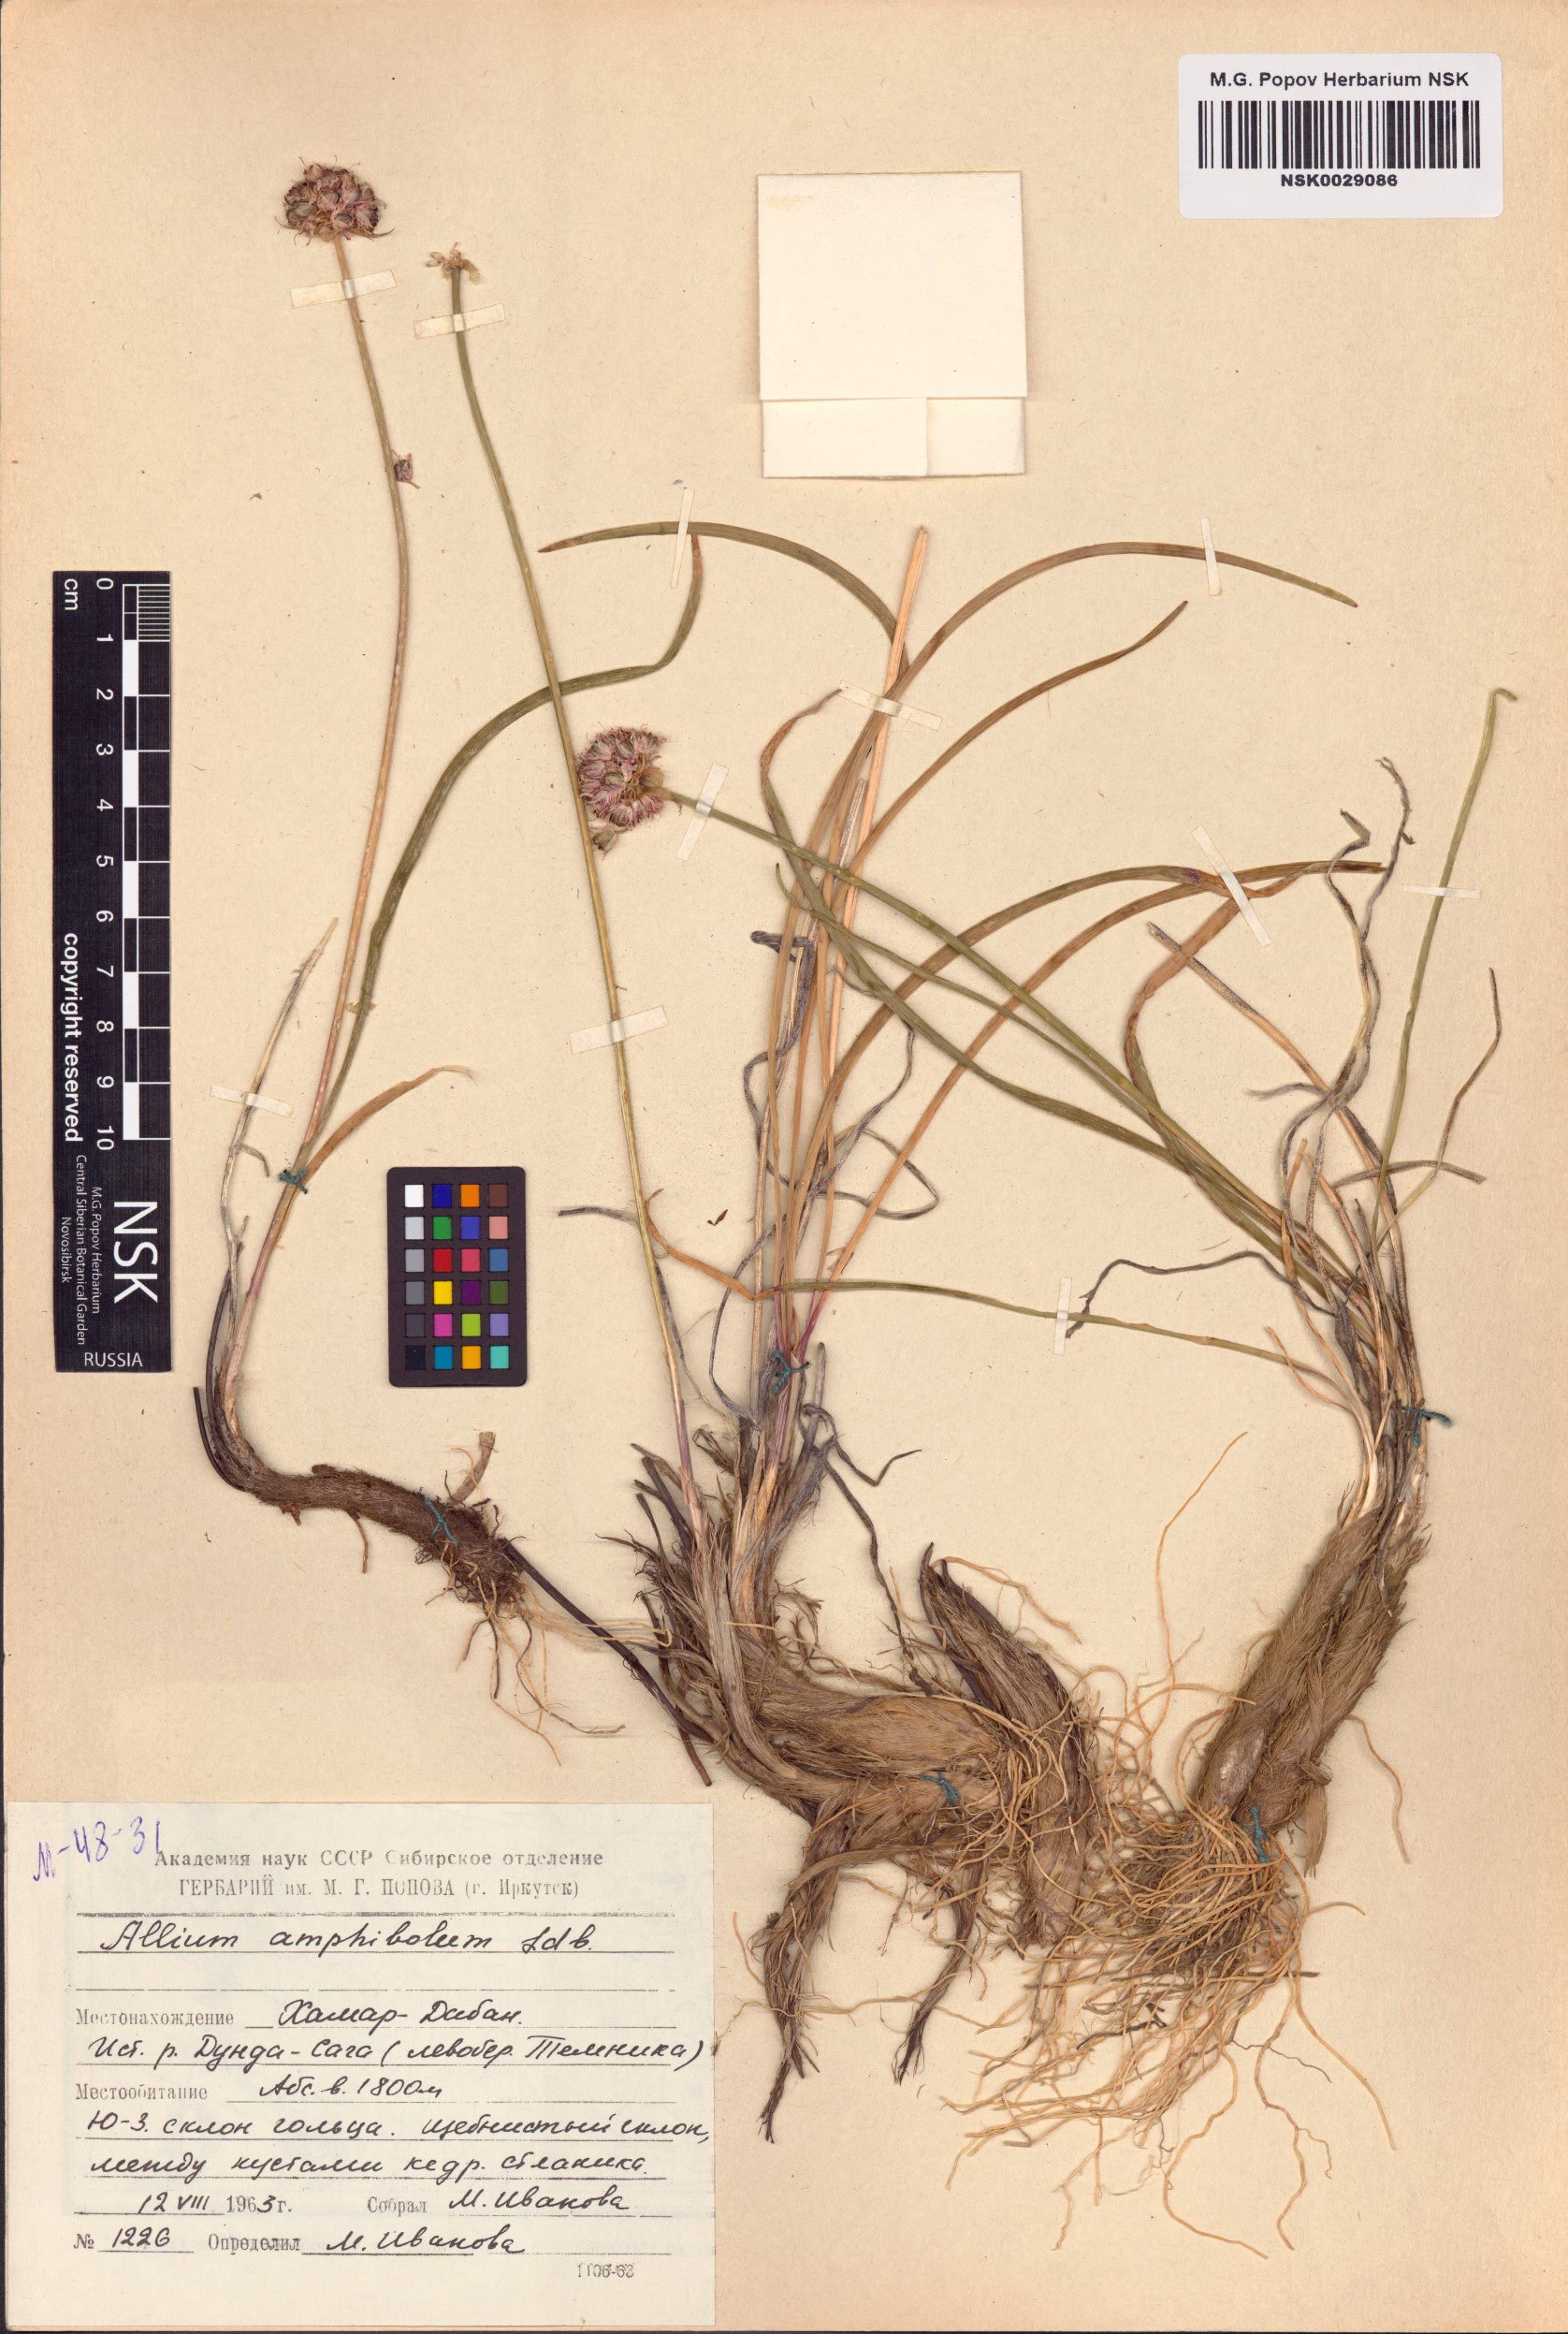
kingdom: Plantae
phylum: Tracheophyta
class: Liliopsida
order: Asparagales
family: Amaryllidaceae
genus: Allium
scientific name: Allium amphibolum
